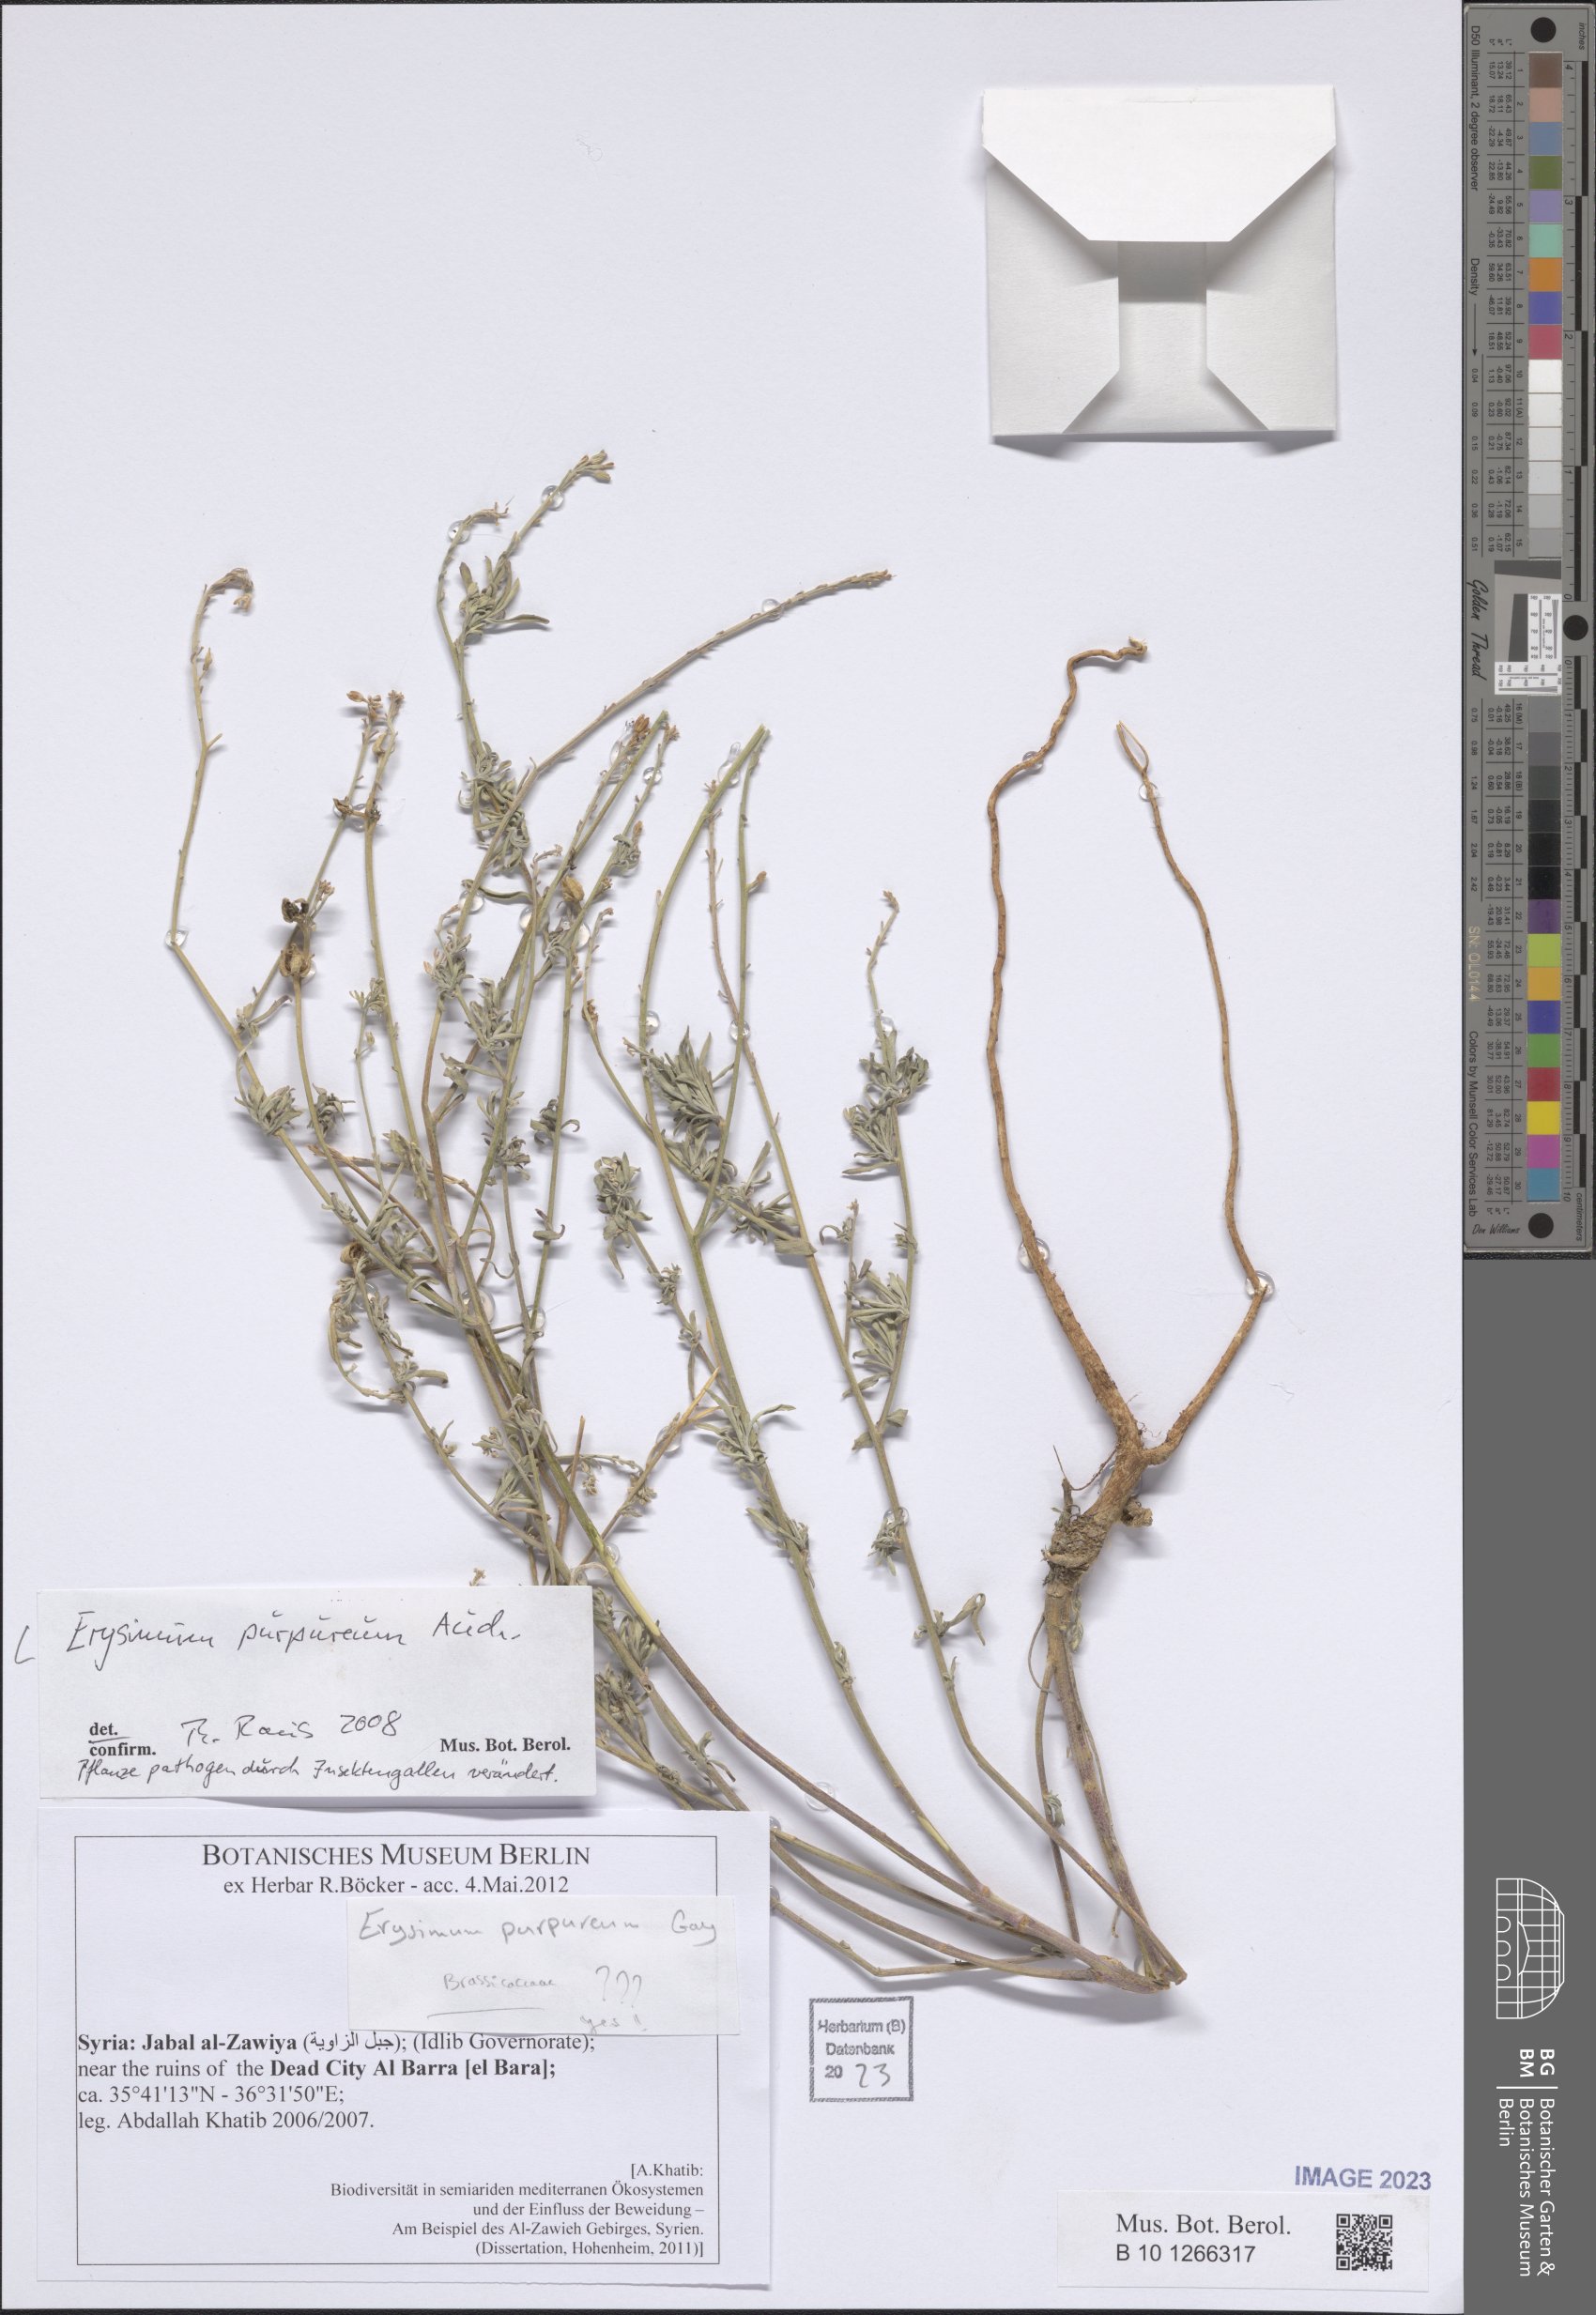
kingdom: Plantae
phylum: Tracheophyta
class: Magnoliopsida
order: Brassicales
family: Brassicaceae
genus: Erysimum
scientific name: Erysimum purpureum
